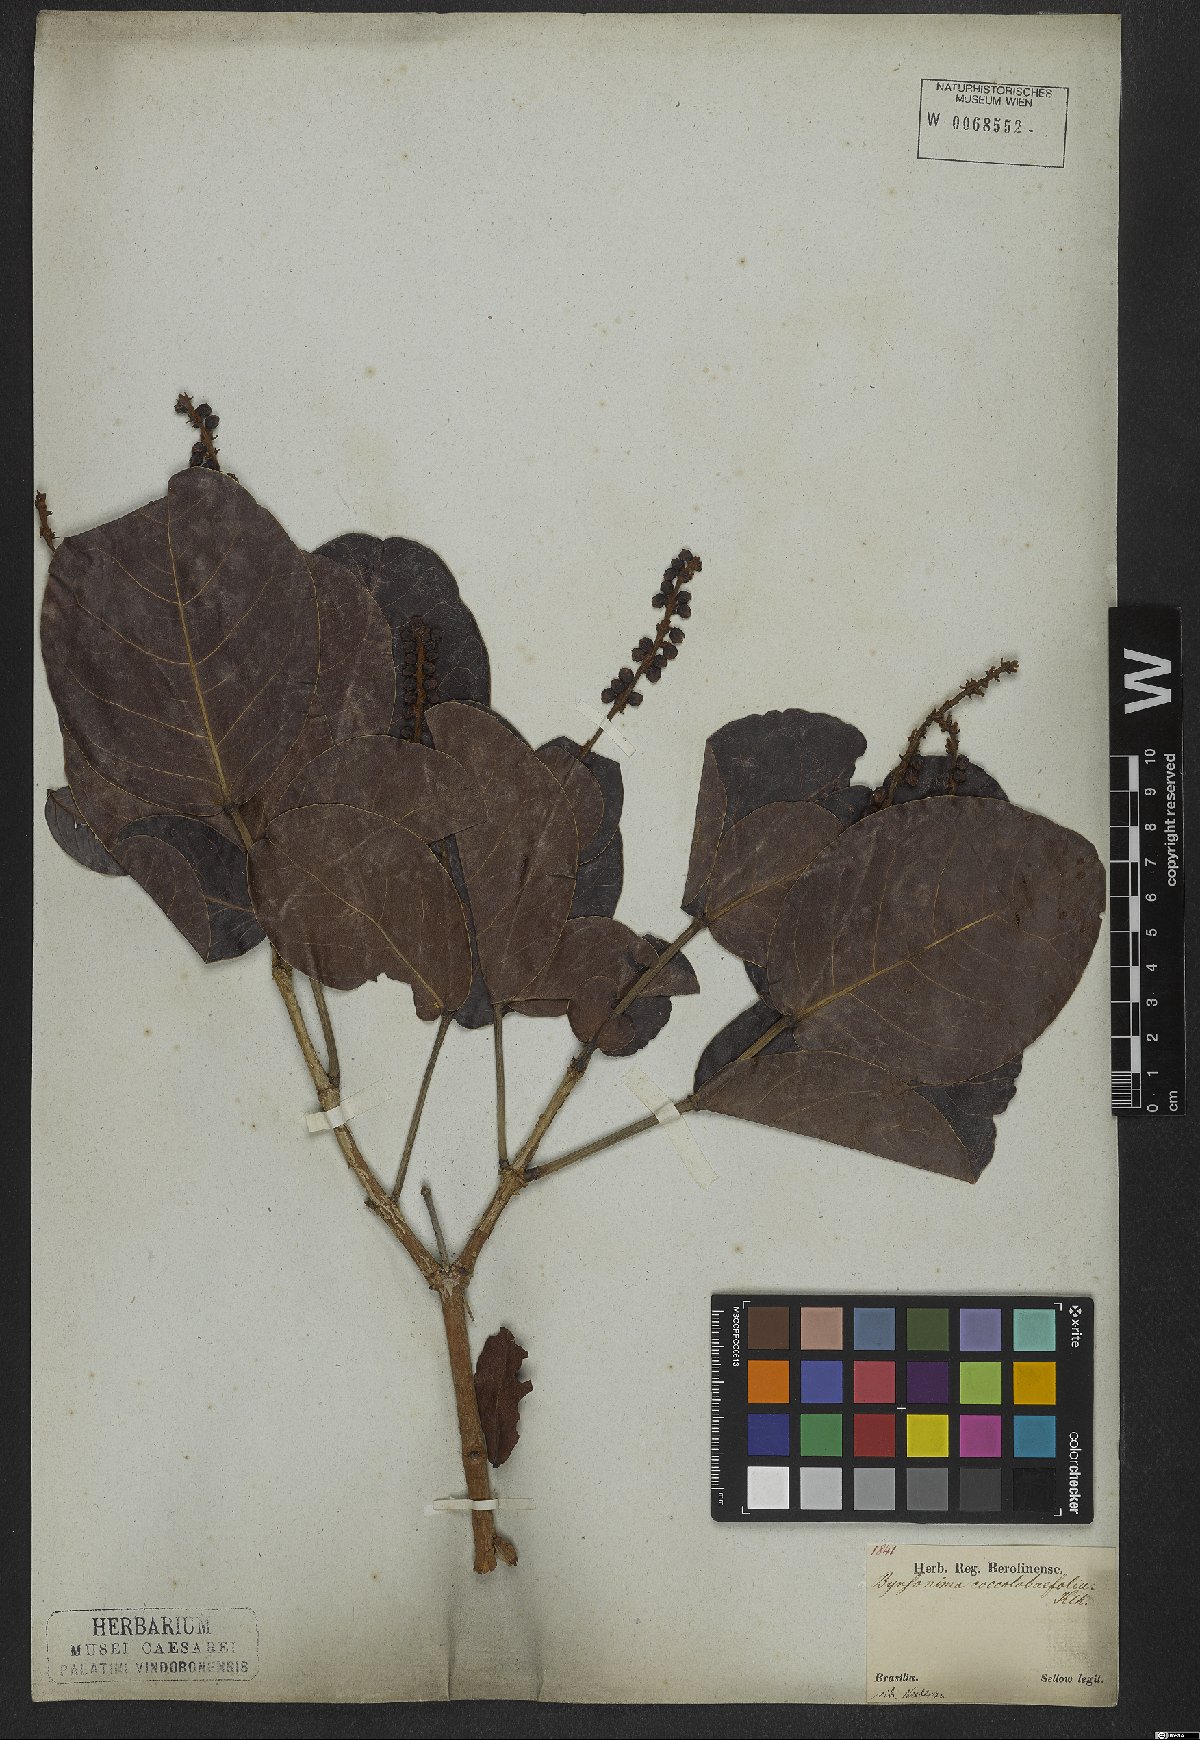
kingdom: Plantae
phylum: Tracheophyta
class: Magnoliopsida
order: Malpighiales
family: Malpighiaceae
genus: Byrsonima
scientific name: Byrsonima coccolobifolia
